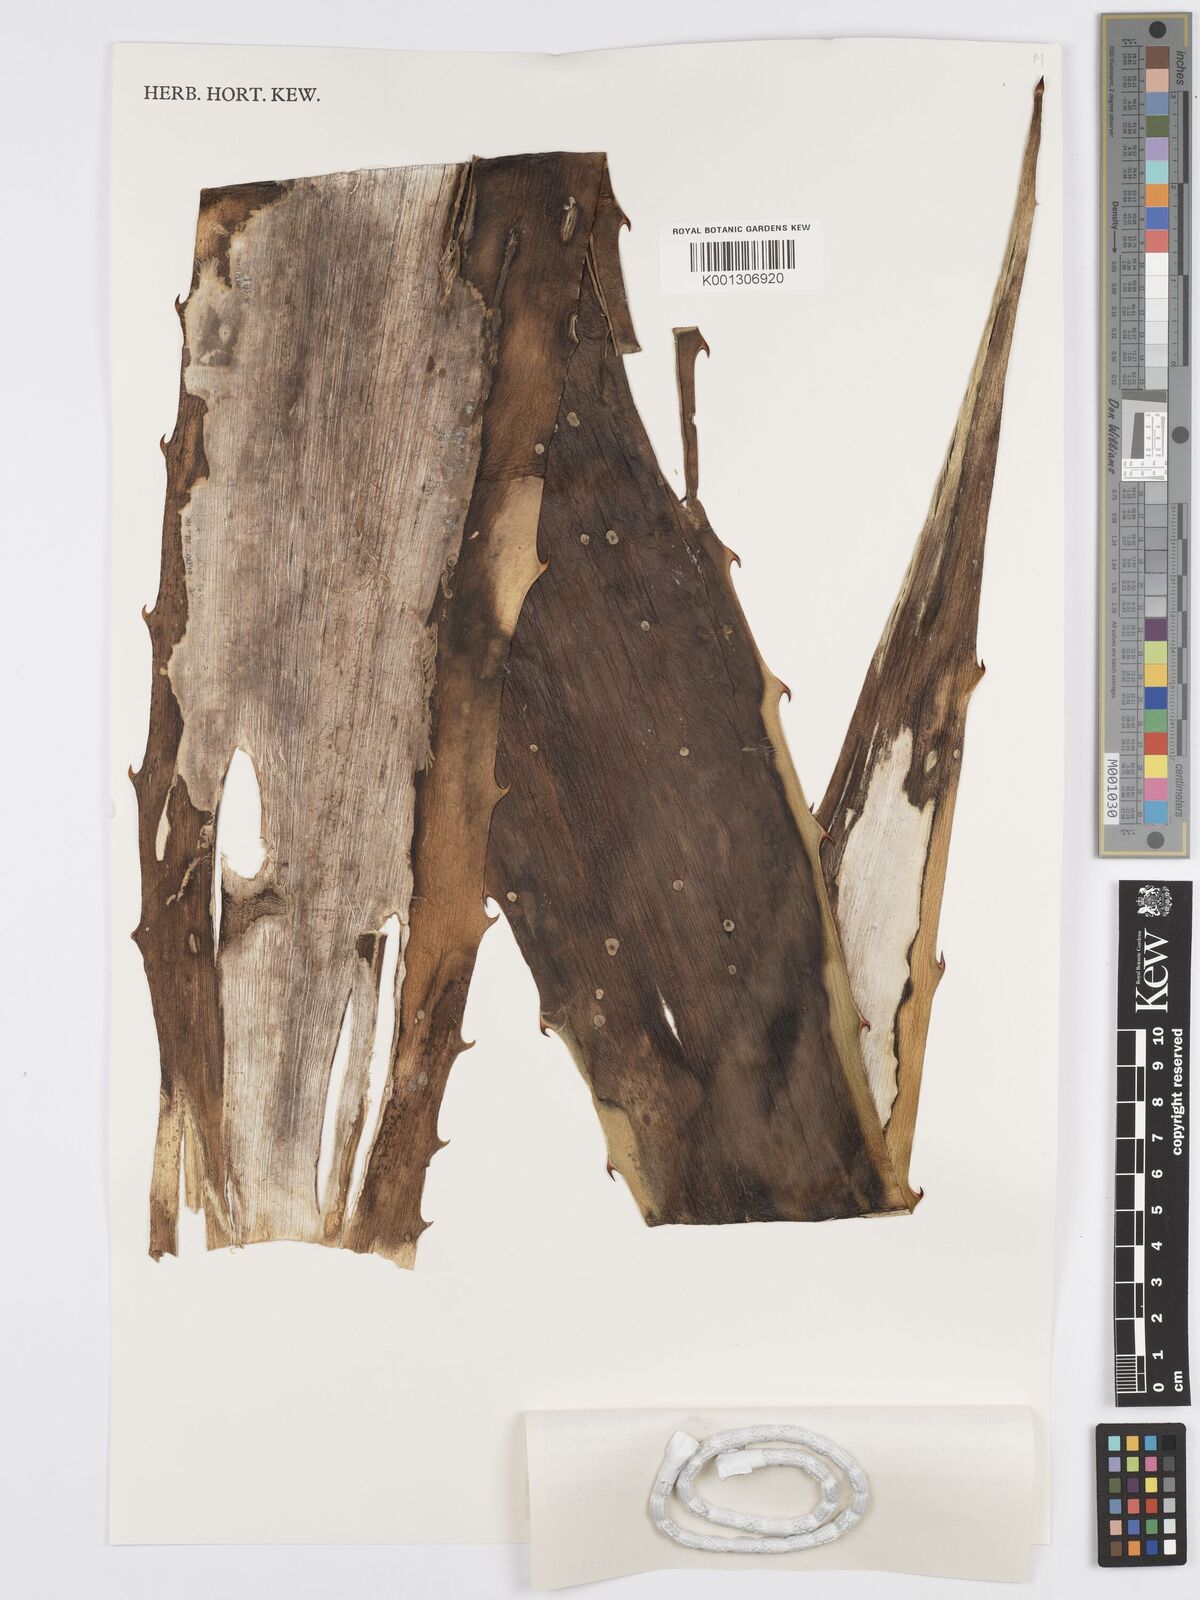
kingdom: Plantae
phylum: Tracheophyta
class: Liliopsida
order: Asparagales
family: Asparagaceae
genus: Furcraea
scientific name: Furcraea pubescens
